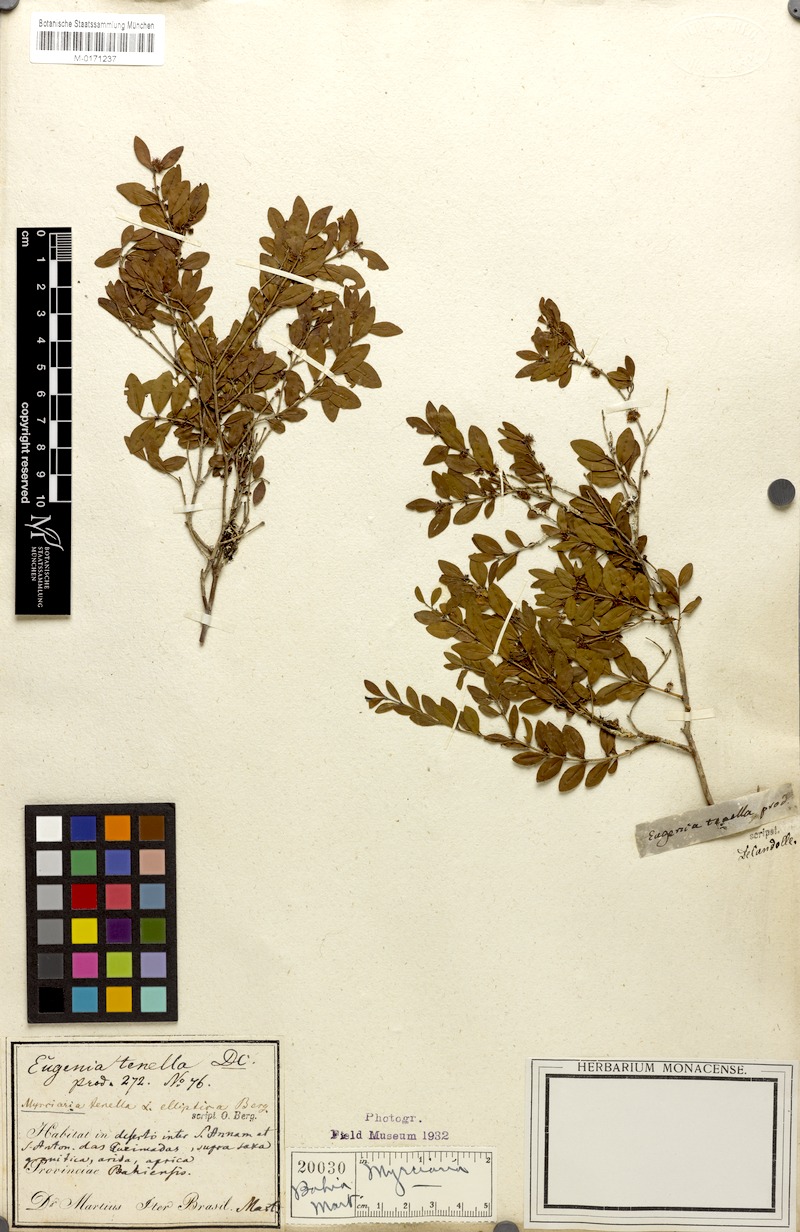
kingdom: Plantae
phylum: Tracheophyta
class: Magnoliopsida
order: Myrtales
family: Myrtaceae
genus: Myrciaria
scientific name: Myrciaria tenella
